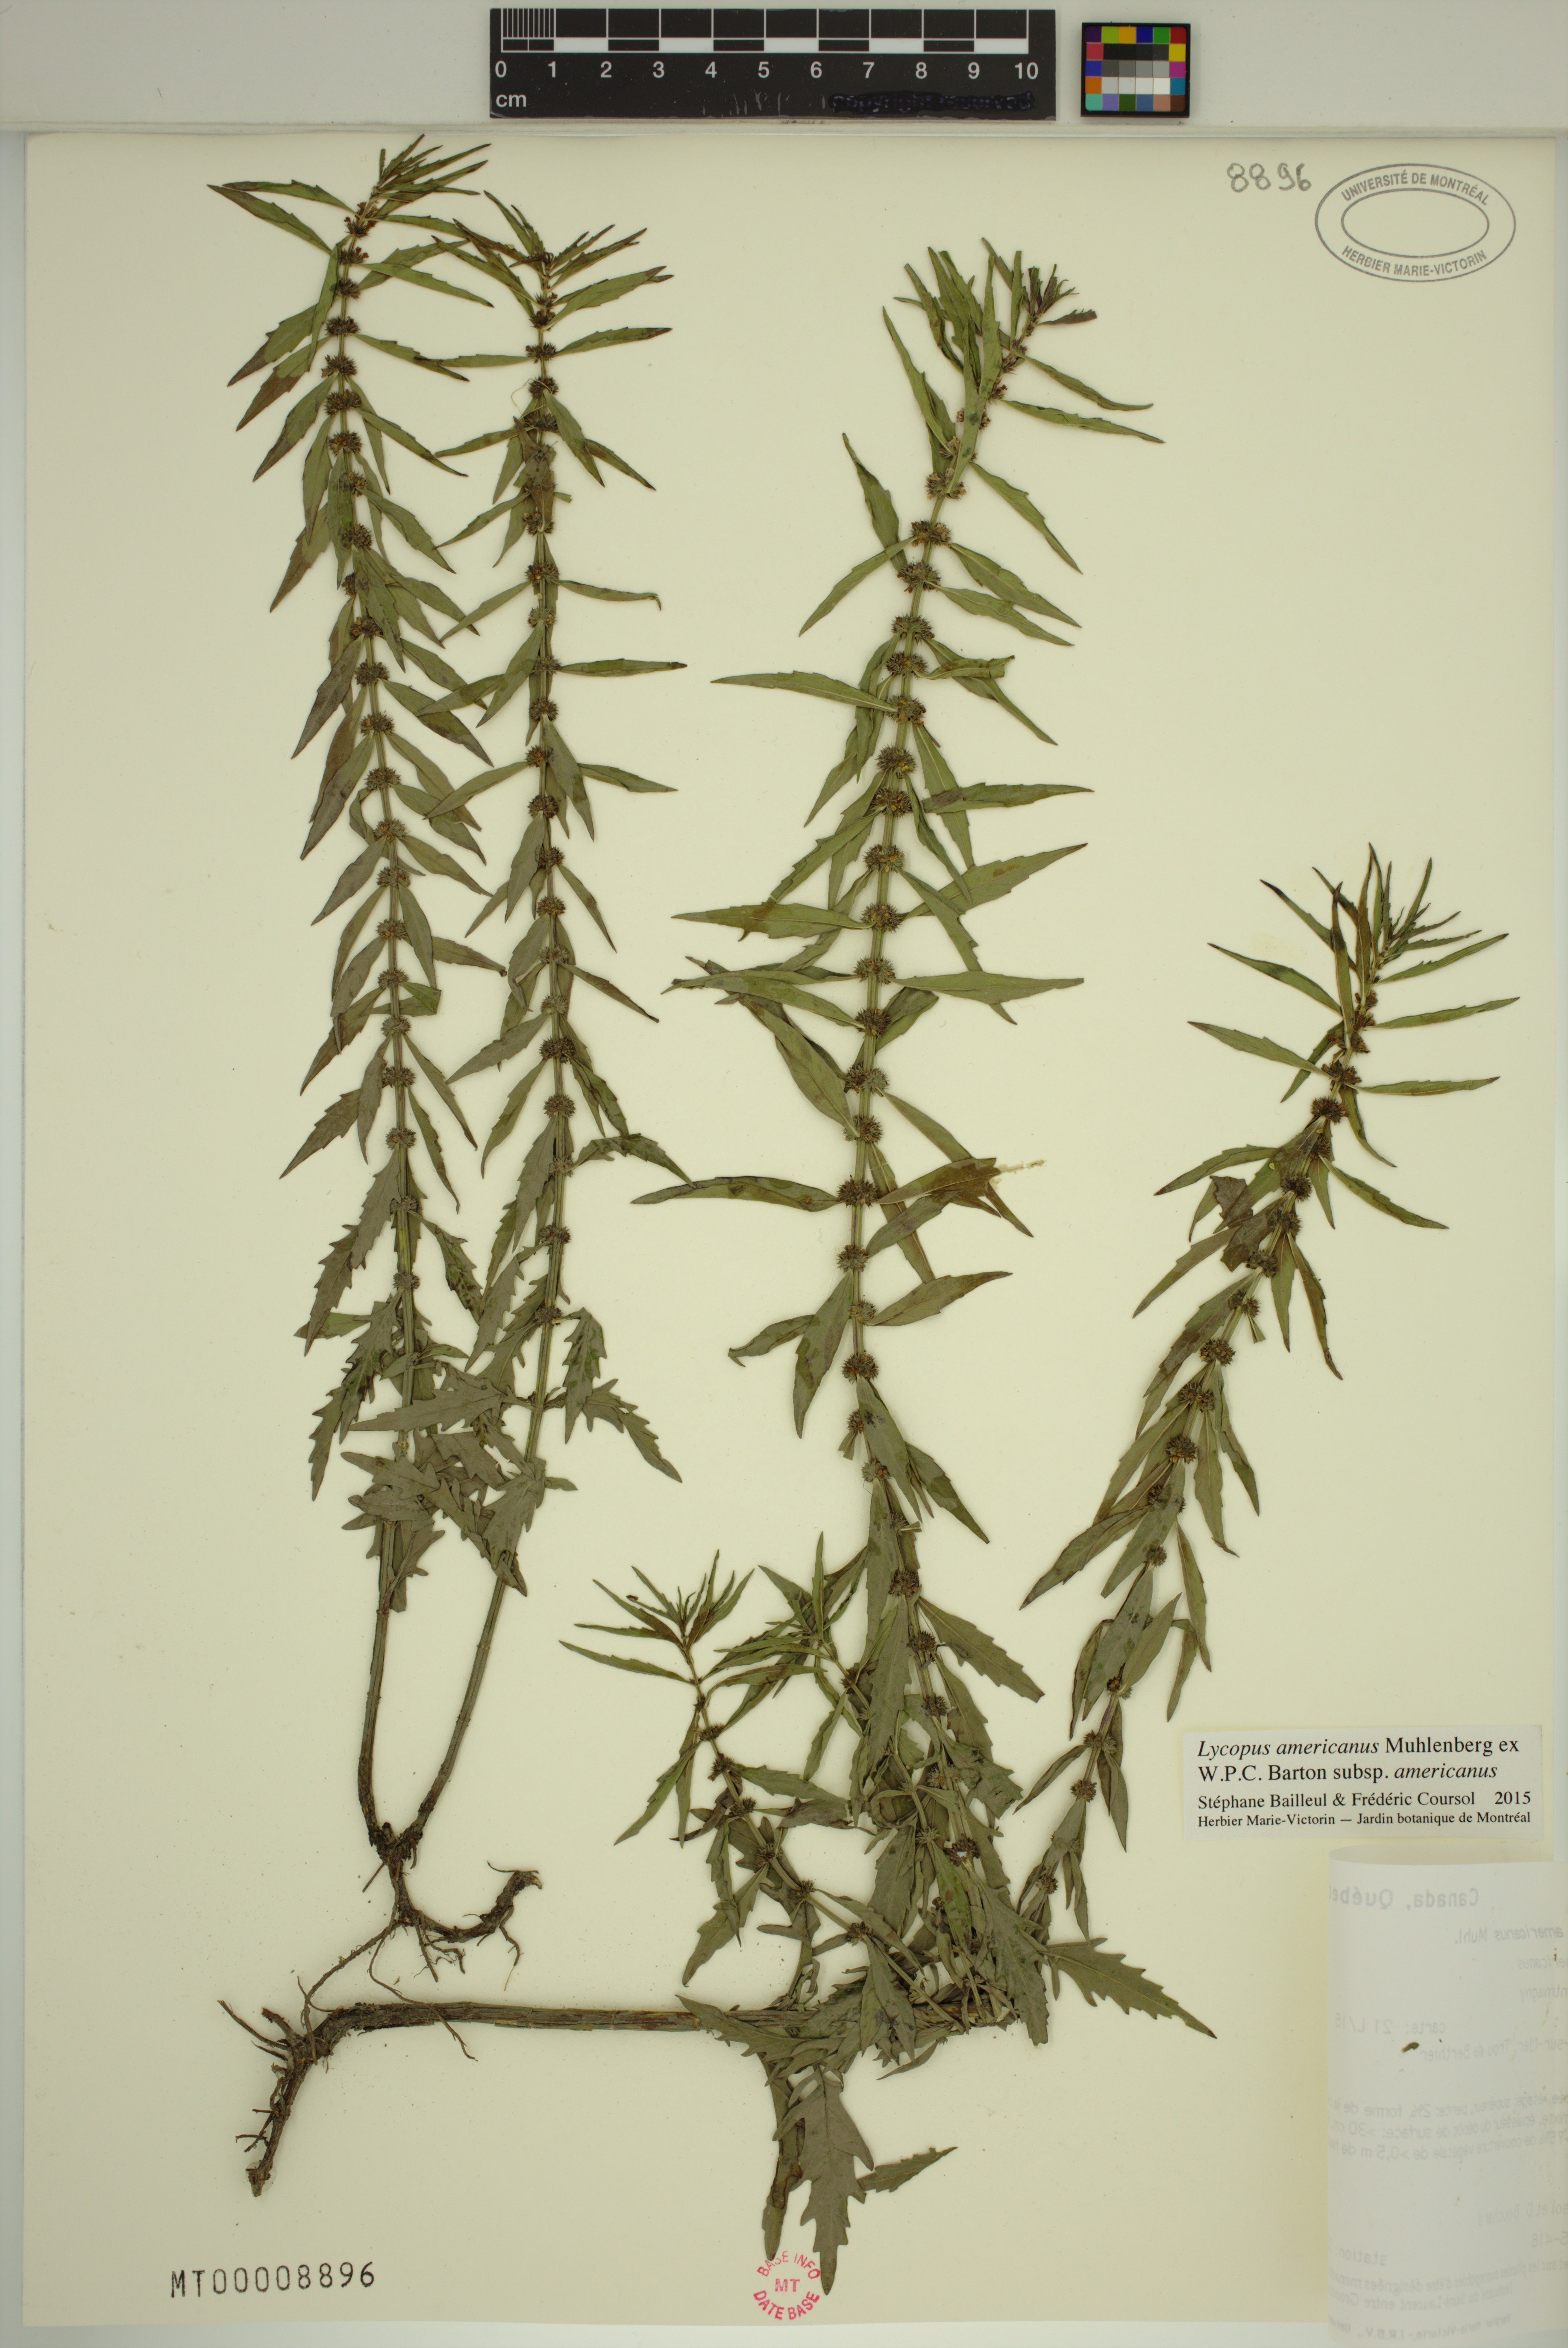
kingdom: Plantae
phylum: Tracheophyta
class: Magnoliopsida
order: Lamiales
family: Lamiaceae
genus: Lycopus
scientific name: Lycopus americanus
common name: American bugleweed
